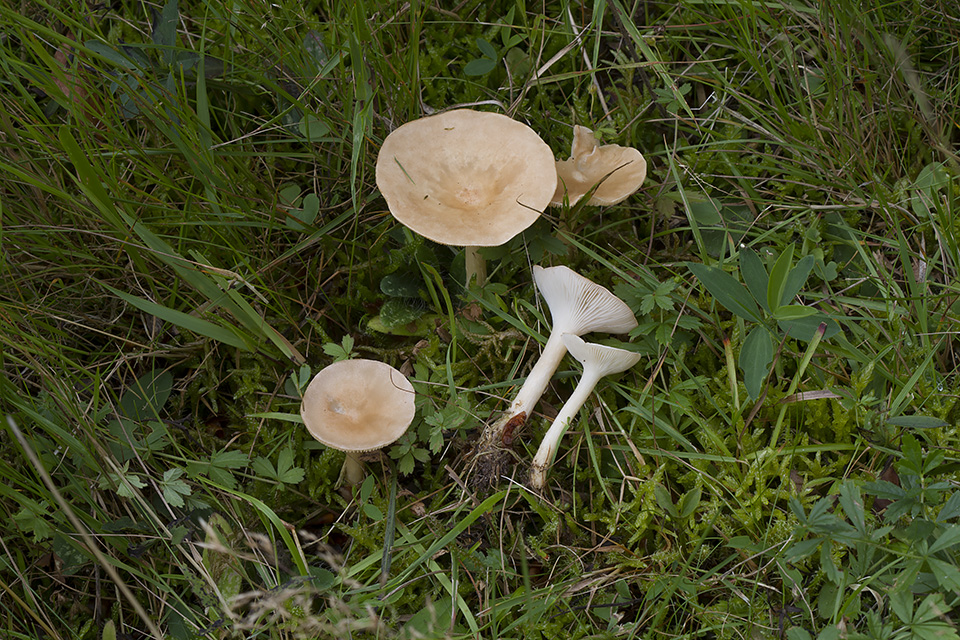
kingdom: Fungi
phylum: Basidiomycota
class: Agaricomycetes
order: Agaricales
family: Tricholomataceae
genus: Infundibulicybe
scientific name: Infundibulicybe gibba
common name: almindelig tragthat
